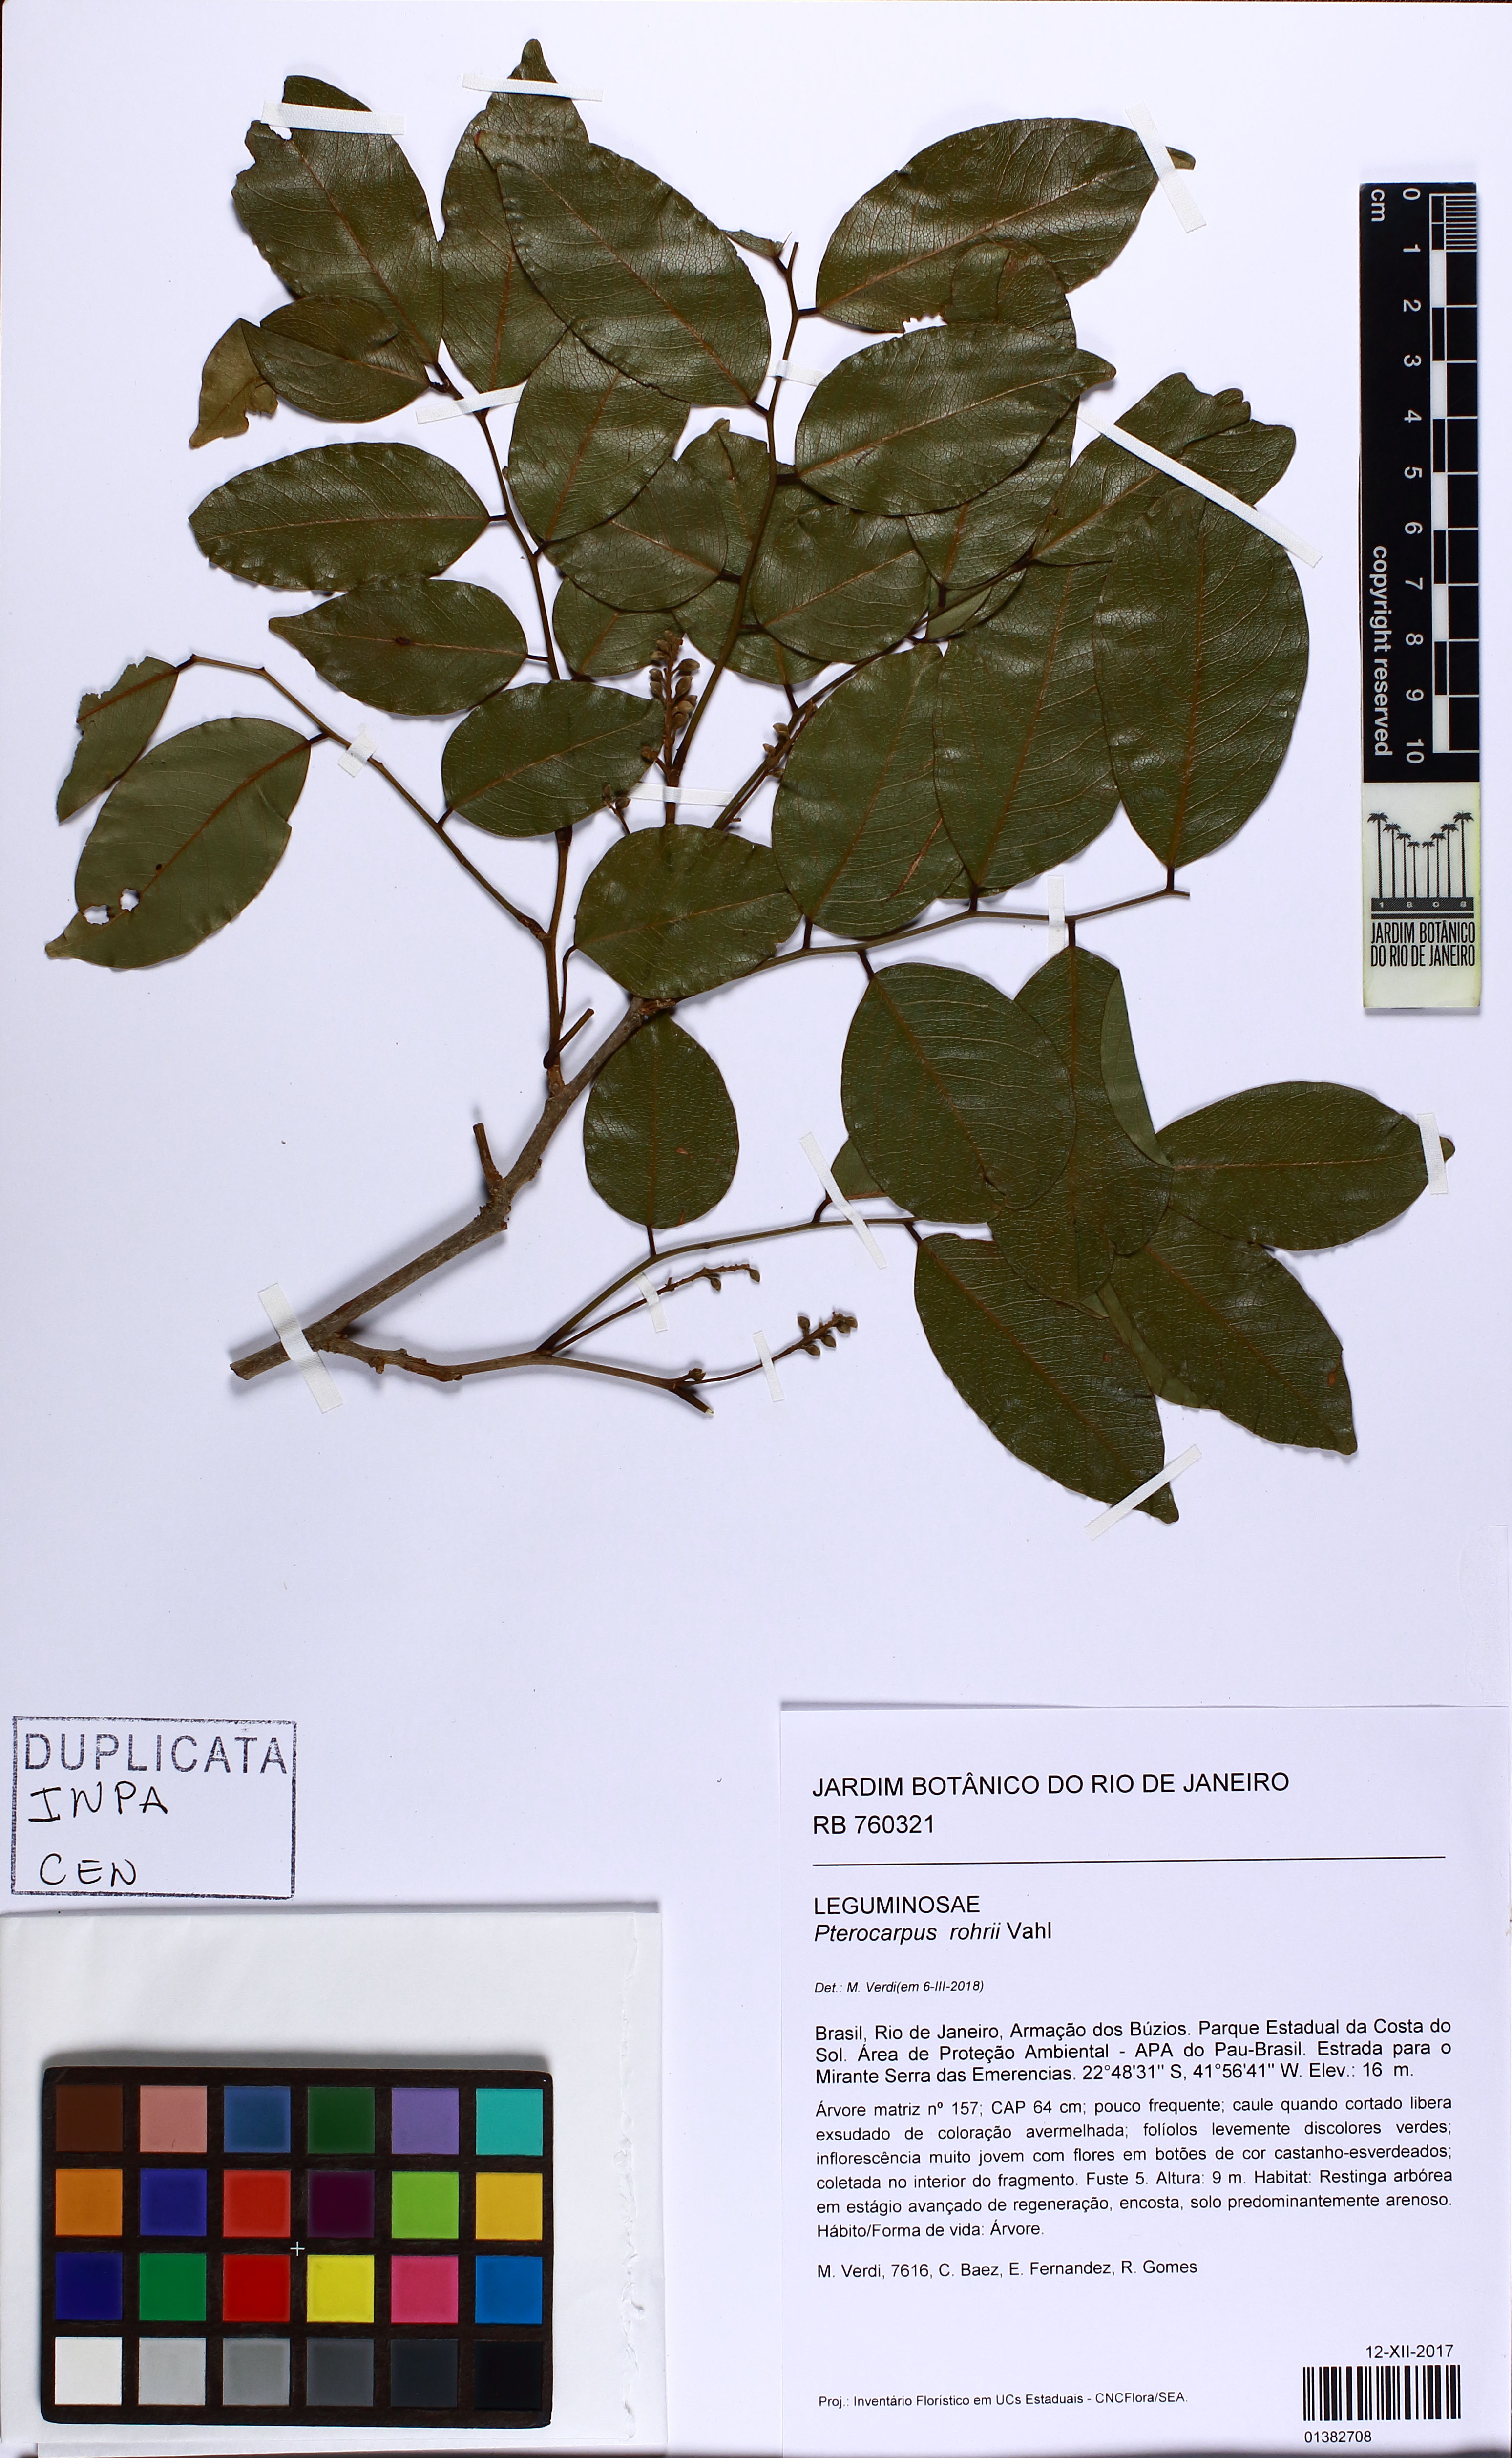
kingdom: Plantae
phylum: Tracheophyta
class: Magnoliopsida
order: Fabales
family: Fabaceae
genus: Pterocarpus
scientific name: Pterocarpus rohrii
